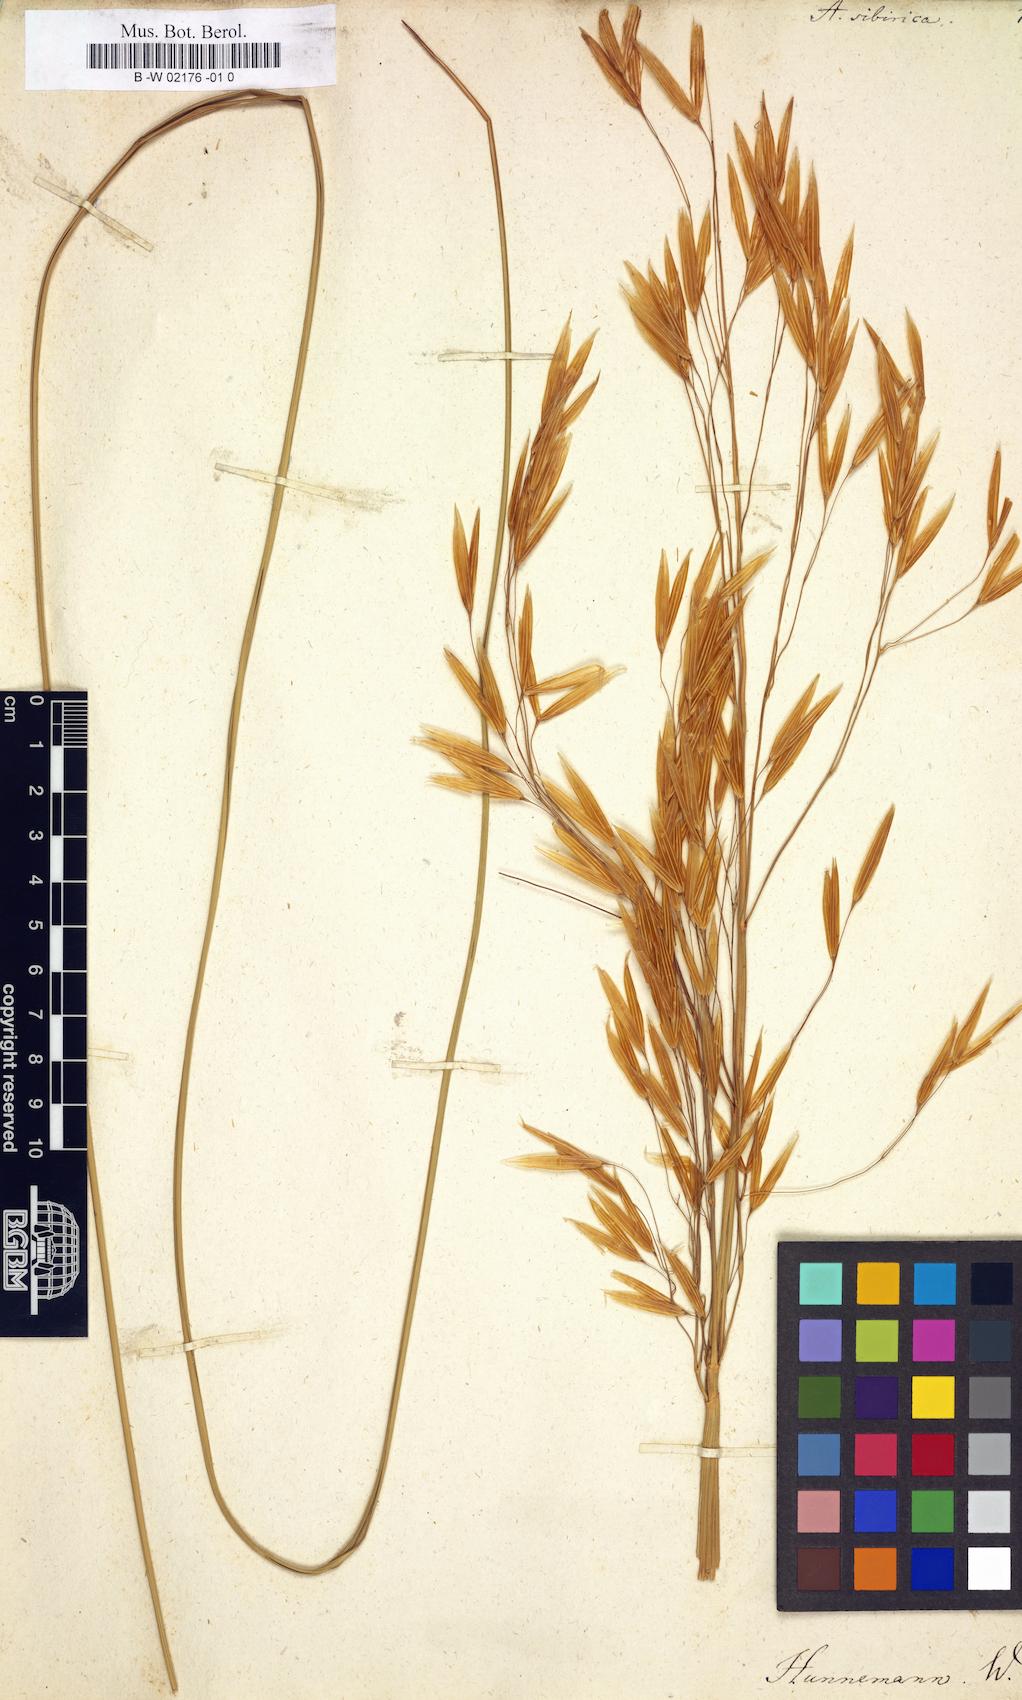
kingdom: Plantae
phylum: Tracheophyta
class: Liliopsida
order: Poales
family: Poaceae
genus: Achnatherum
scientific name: Achnatherum sibiricum
